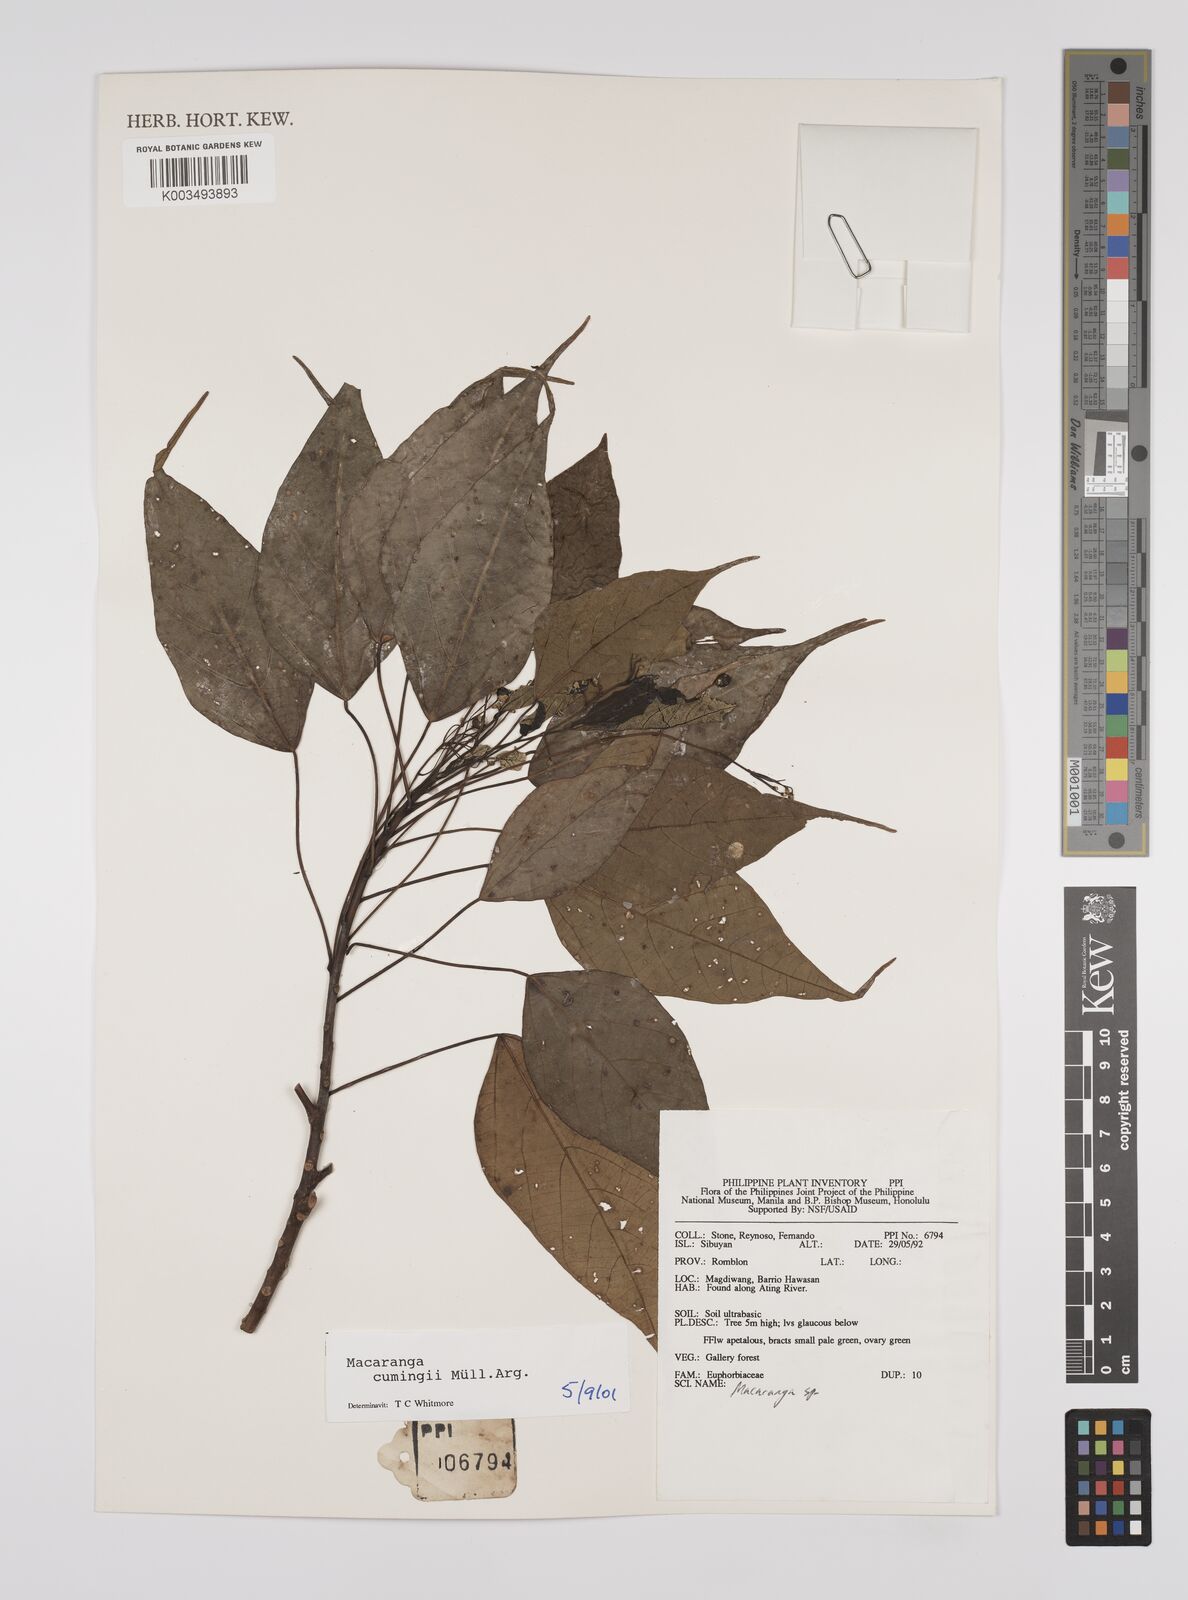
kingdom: Plantae
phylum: Tracheophyta
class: Magnoliopsida
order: Malpighiales
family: Euphorbiaceae
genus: Macaranga
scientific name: Macaranga cumingii
